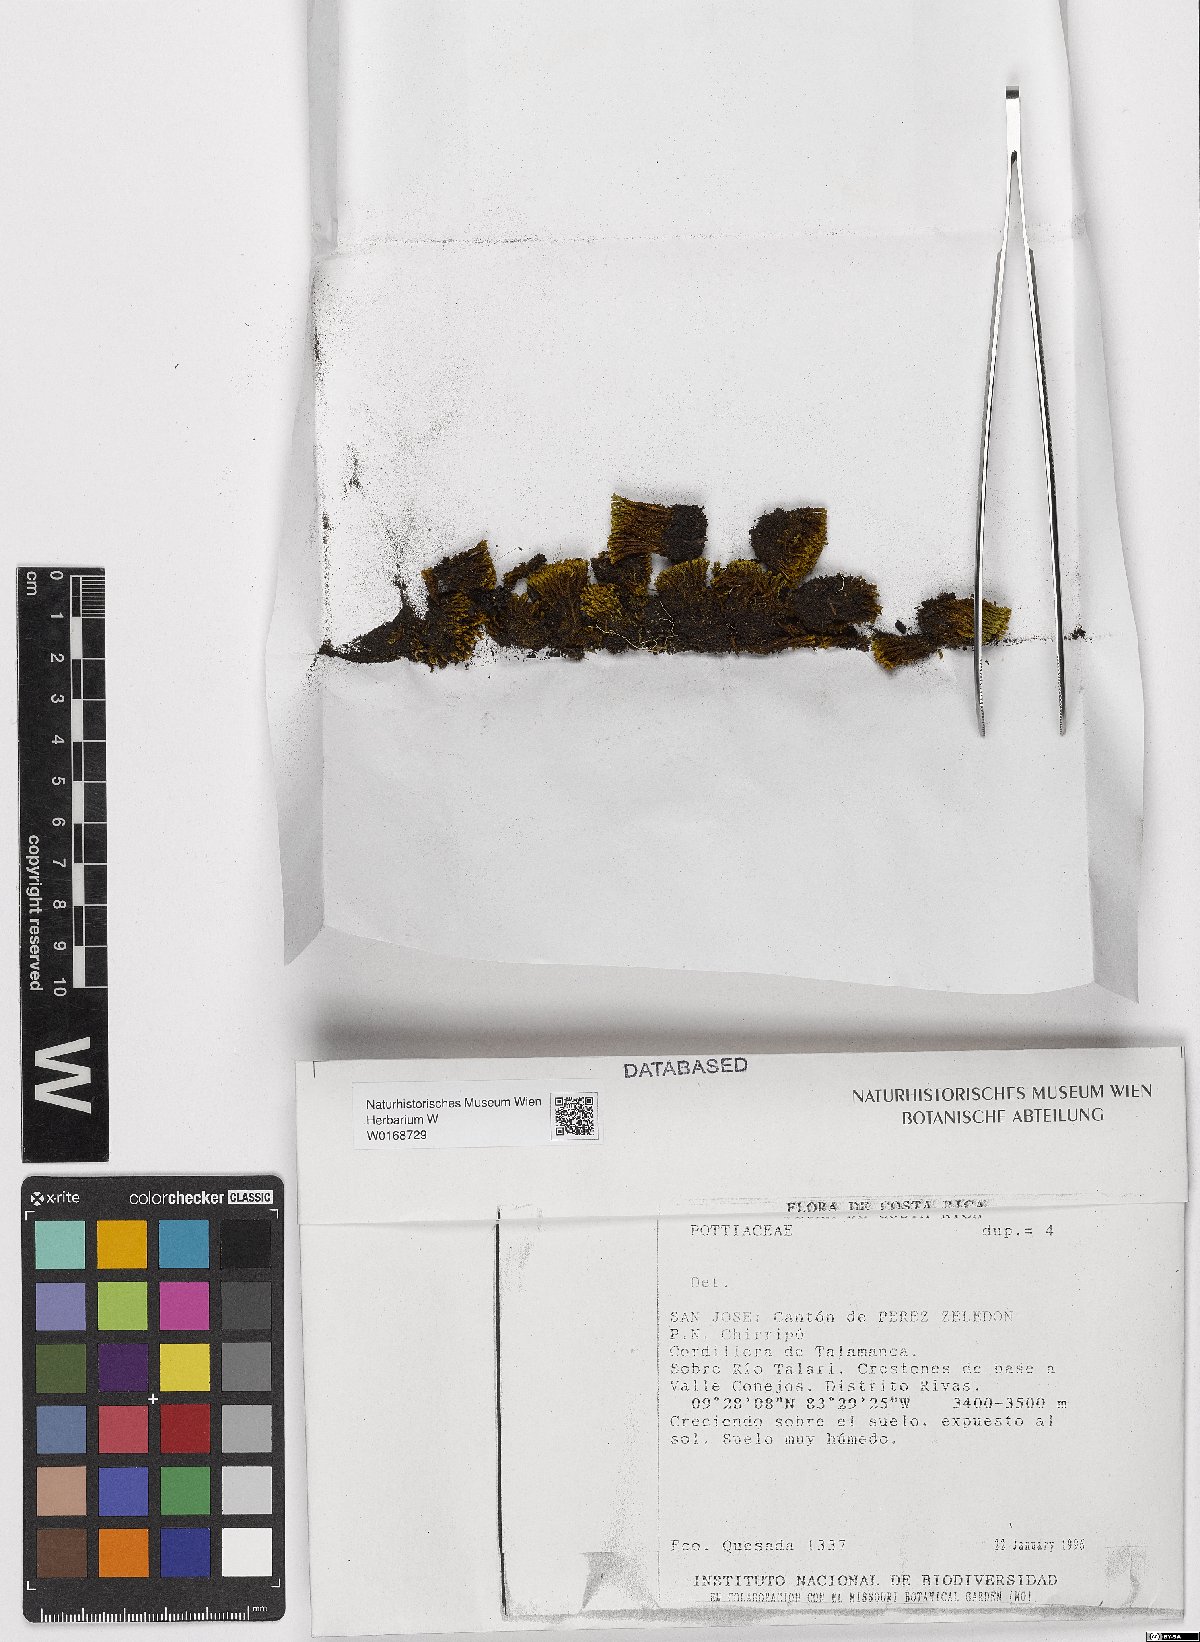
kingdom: Plantae
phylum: Bryophyta
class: Bryopsida
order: Pottiales
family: Pottiaceae
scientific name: Pottiaceae
